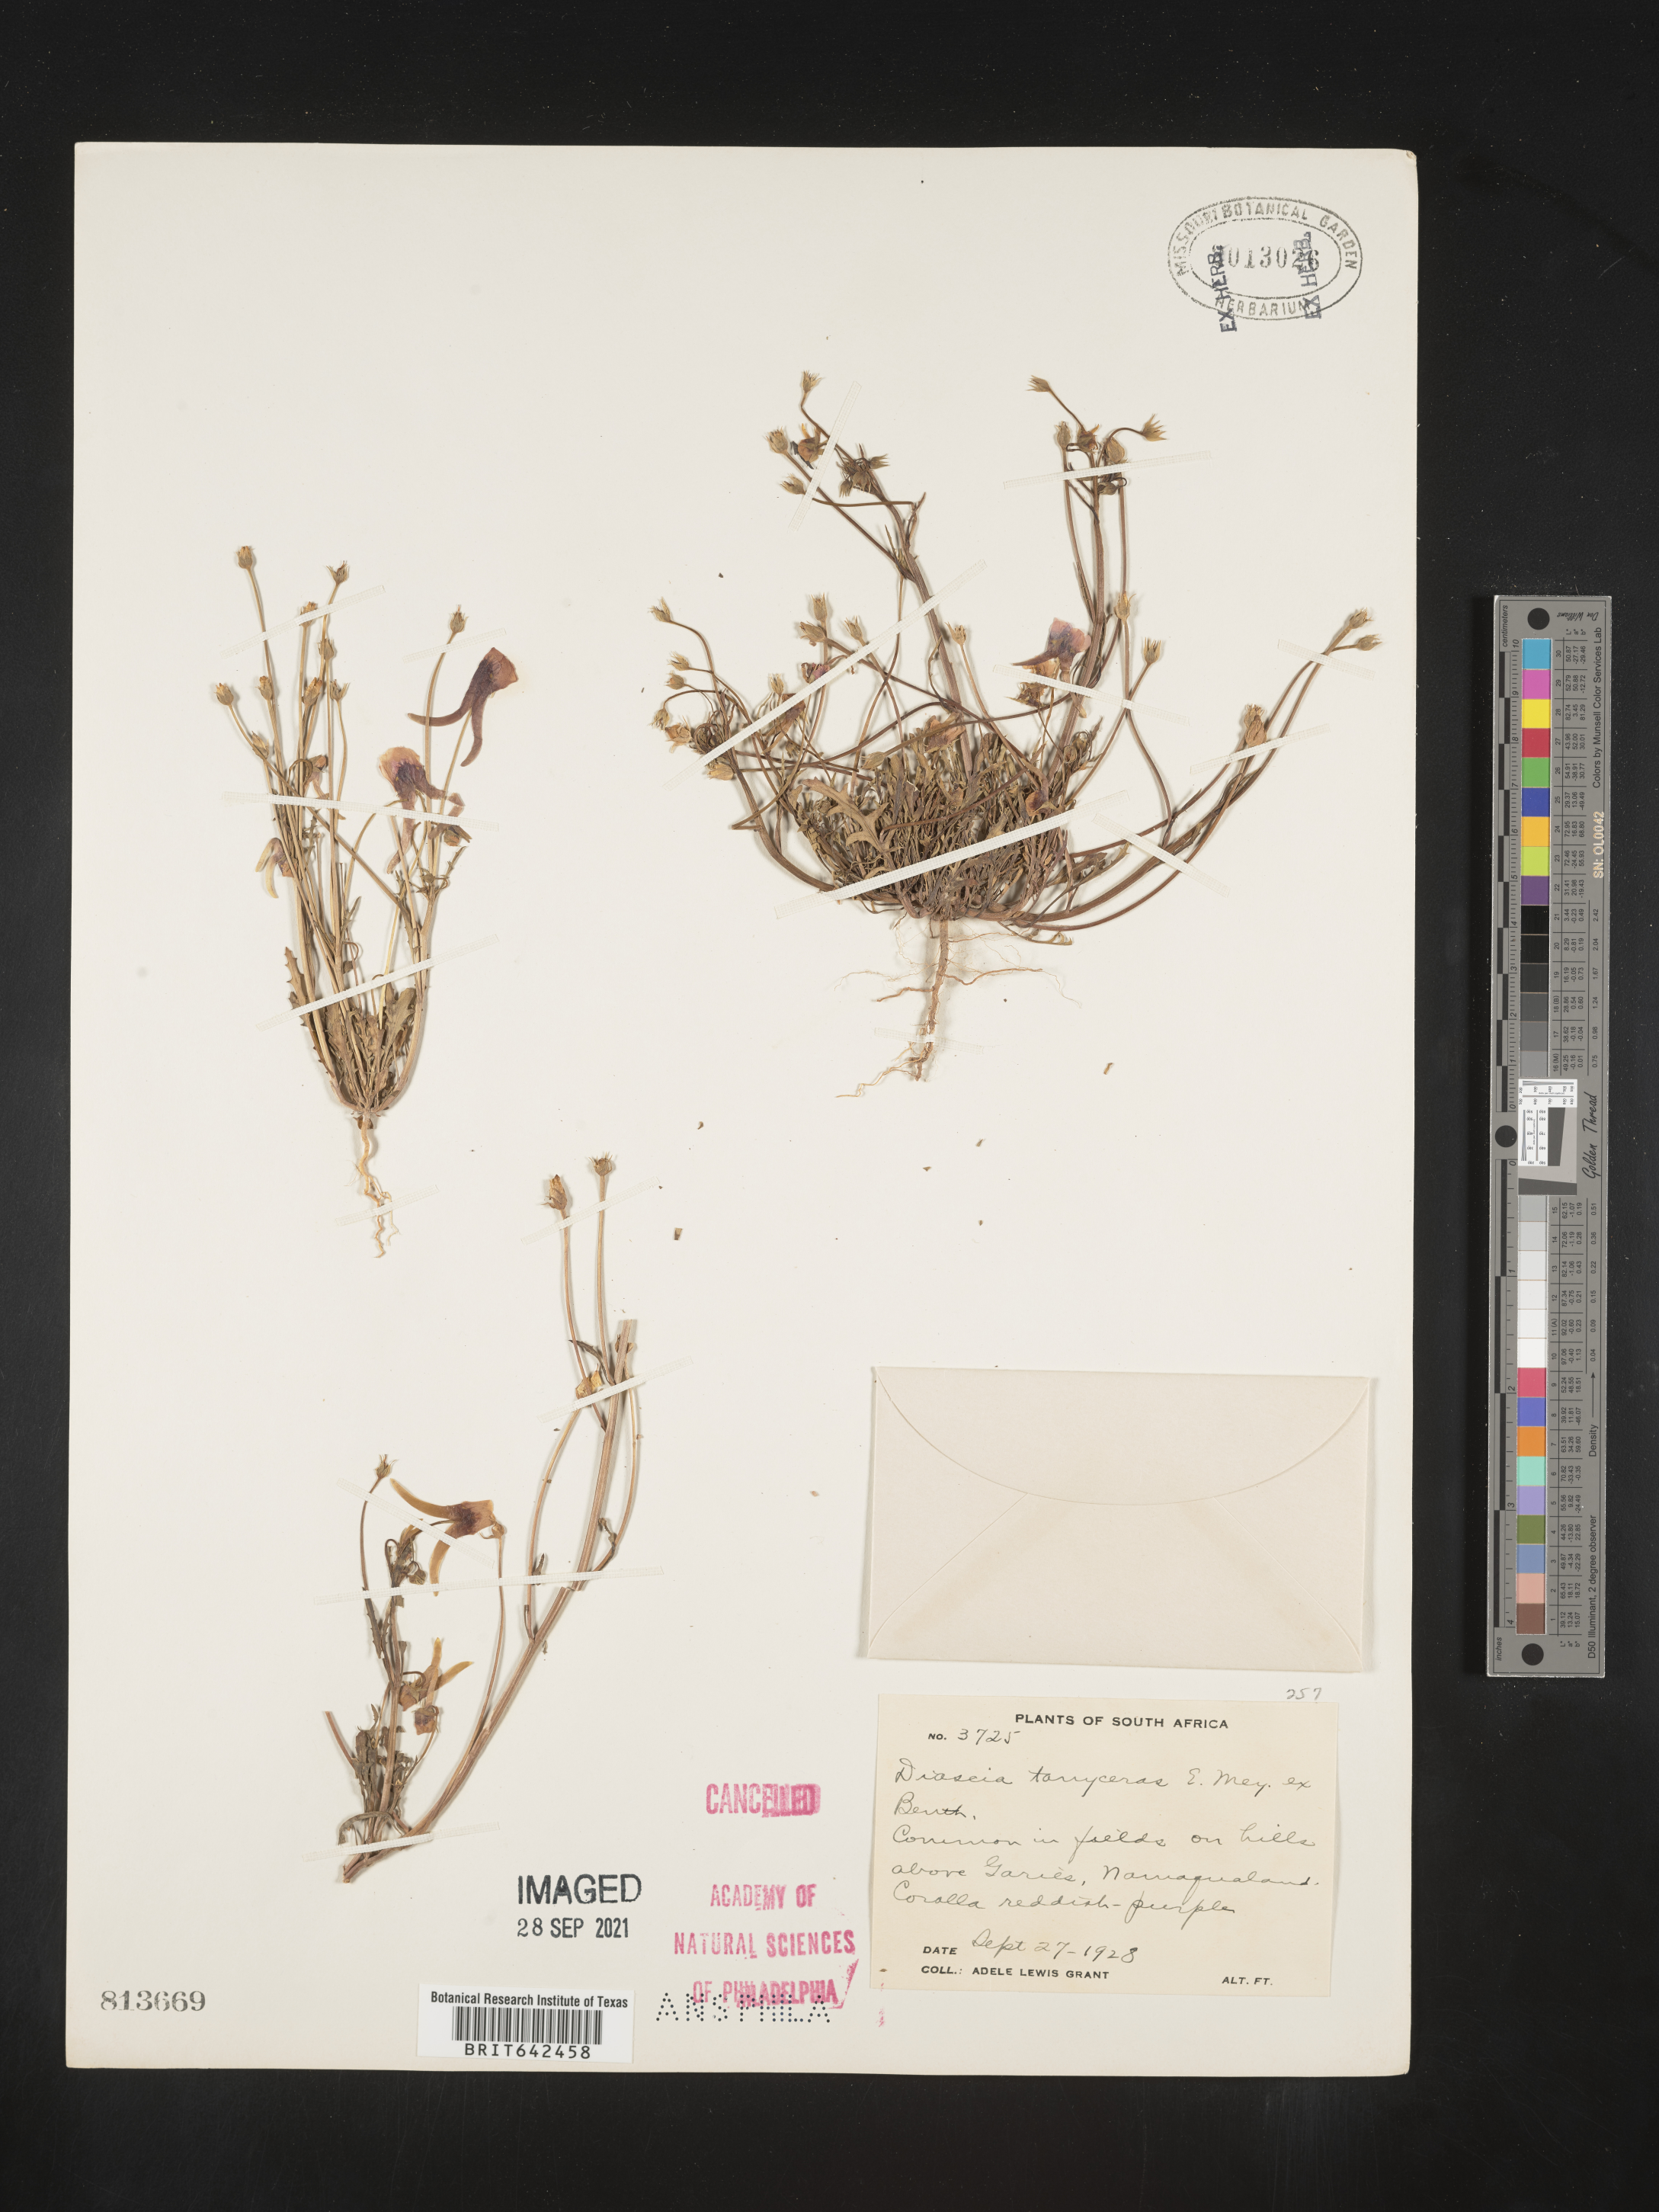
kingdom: Plantae
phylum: Tracheophyta
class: Magnoliopsida
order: Lamiales
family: Scrophulariaceae
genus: Diascia
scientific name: Diascia
